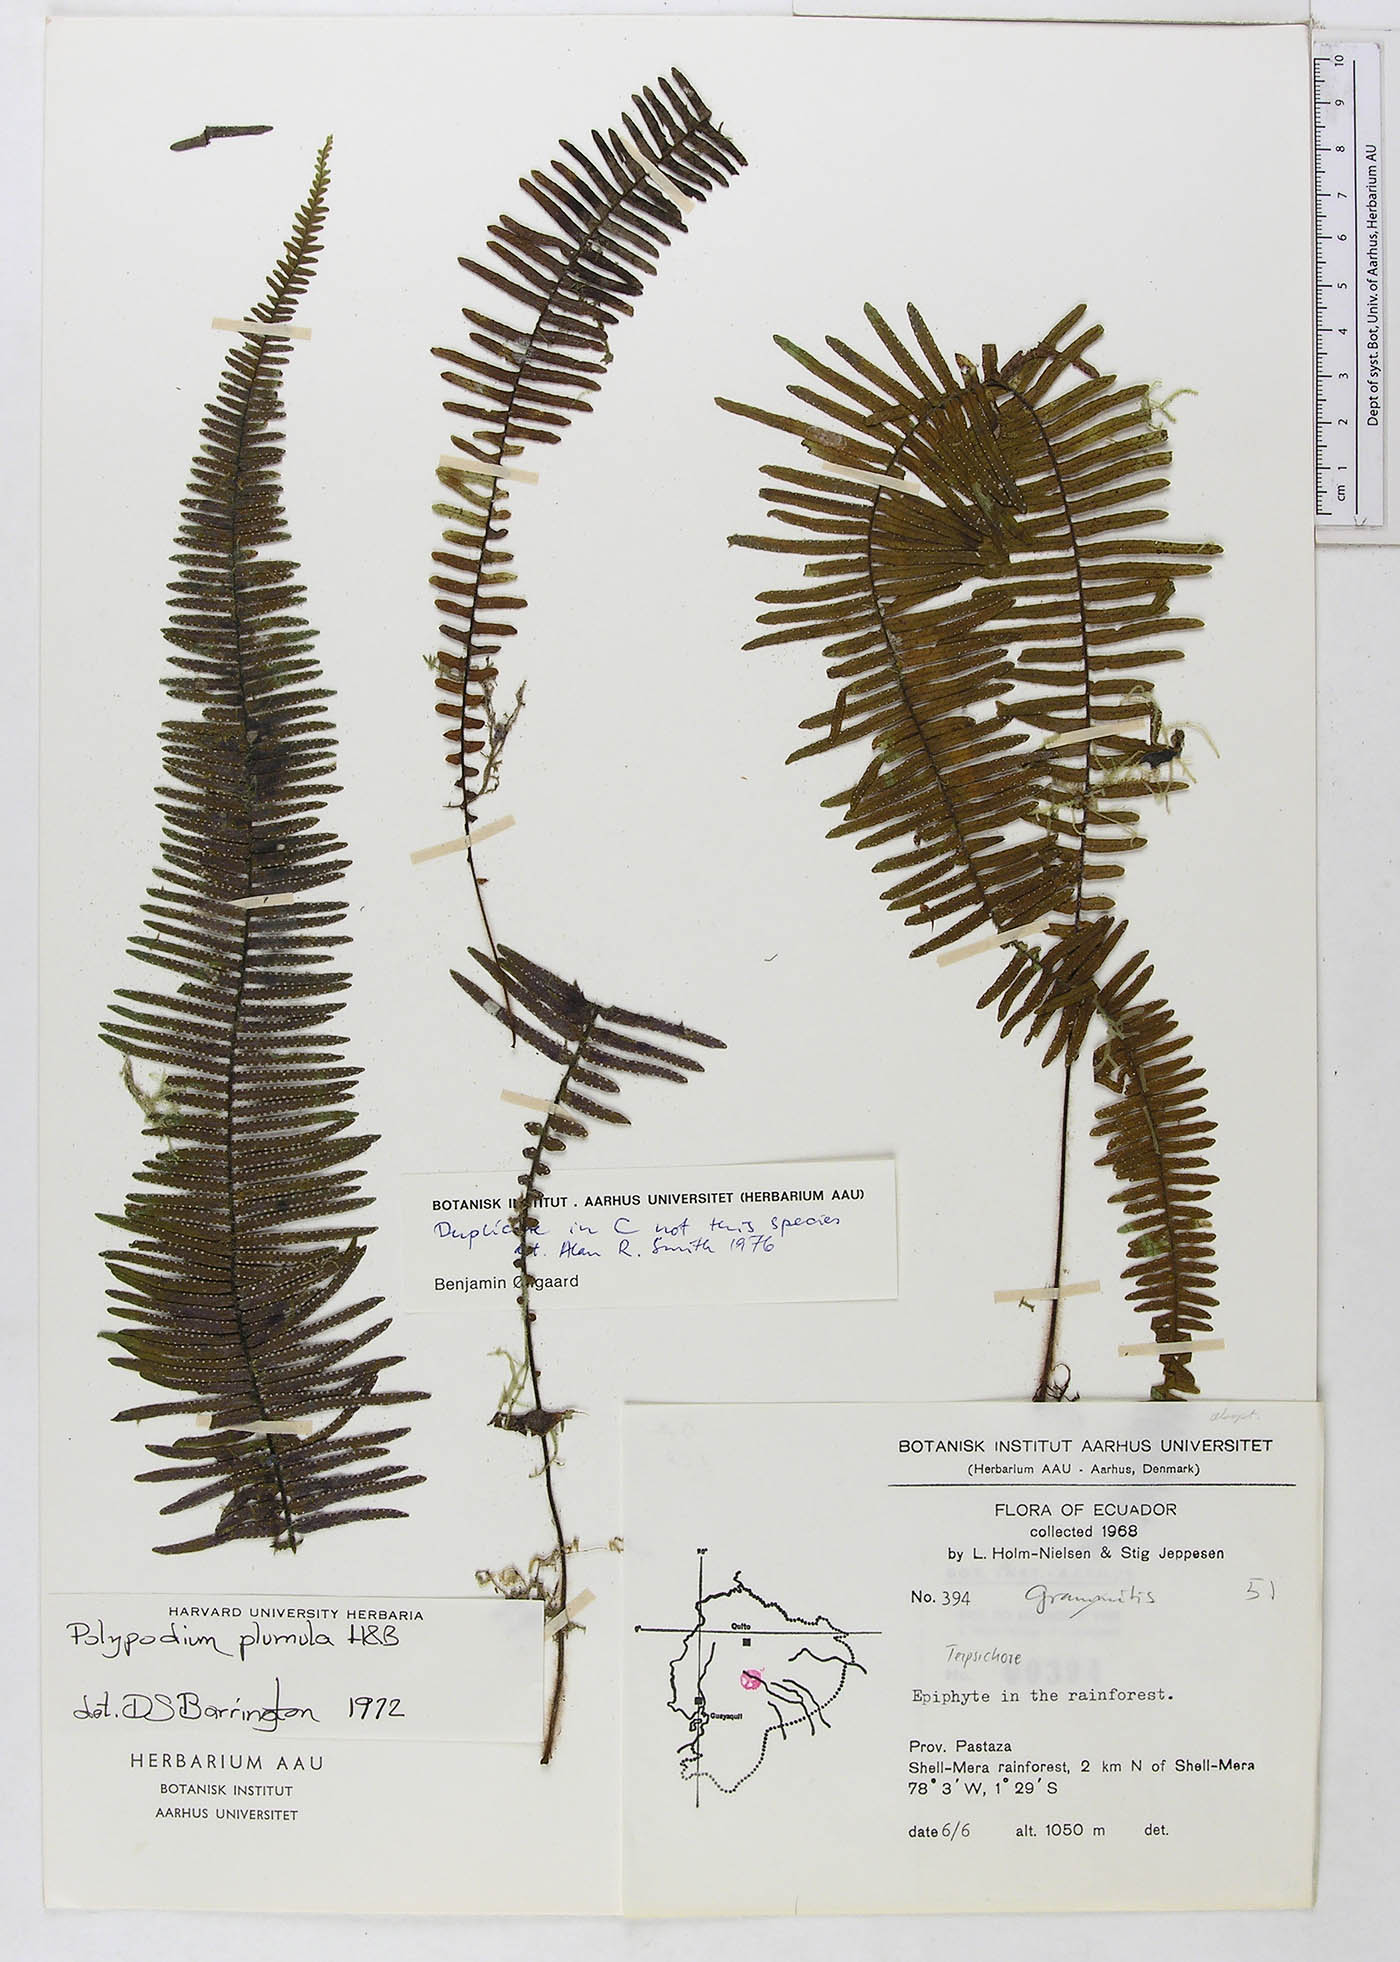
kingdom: Plantae
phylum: Tracheophyta
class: Polypodiopsida
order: Polypodiales
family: Polypodiaceae
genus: Pecluma
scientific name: Pecluma plumula
